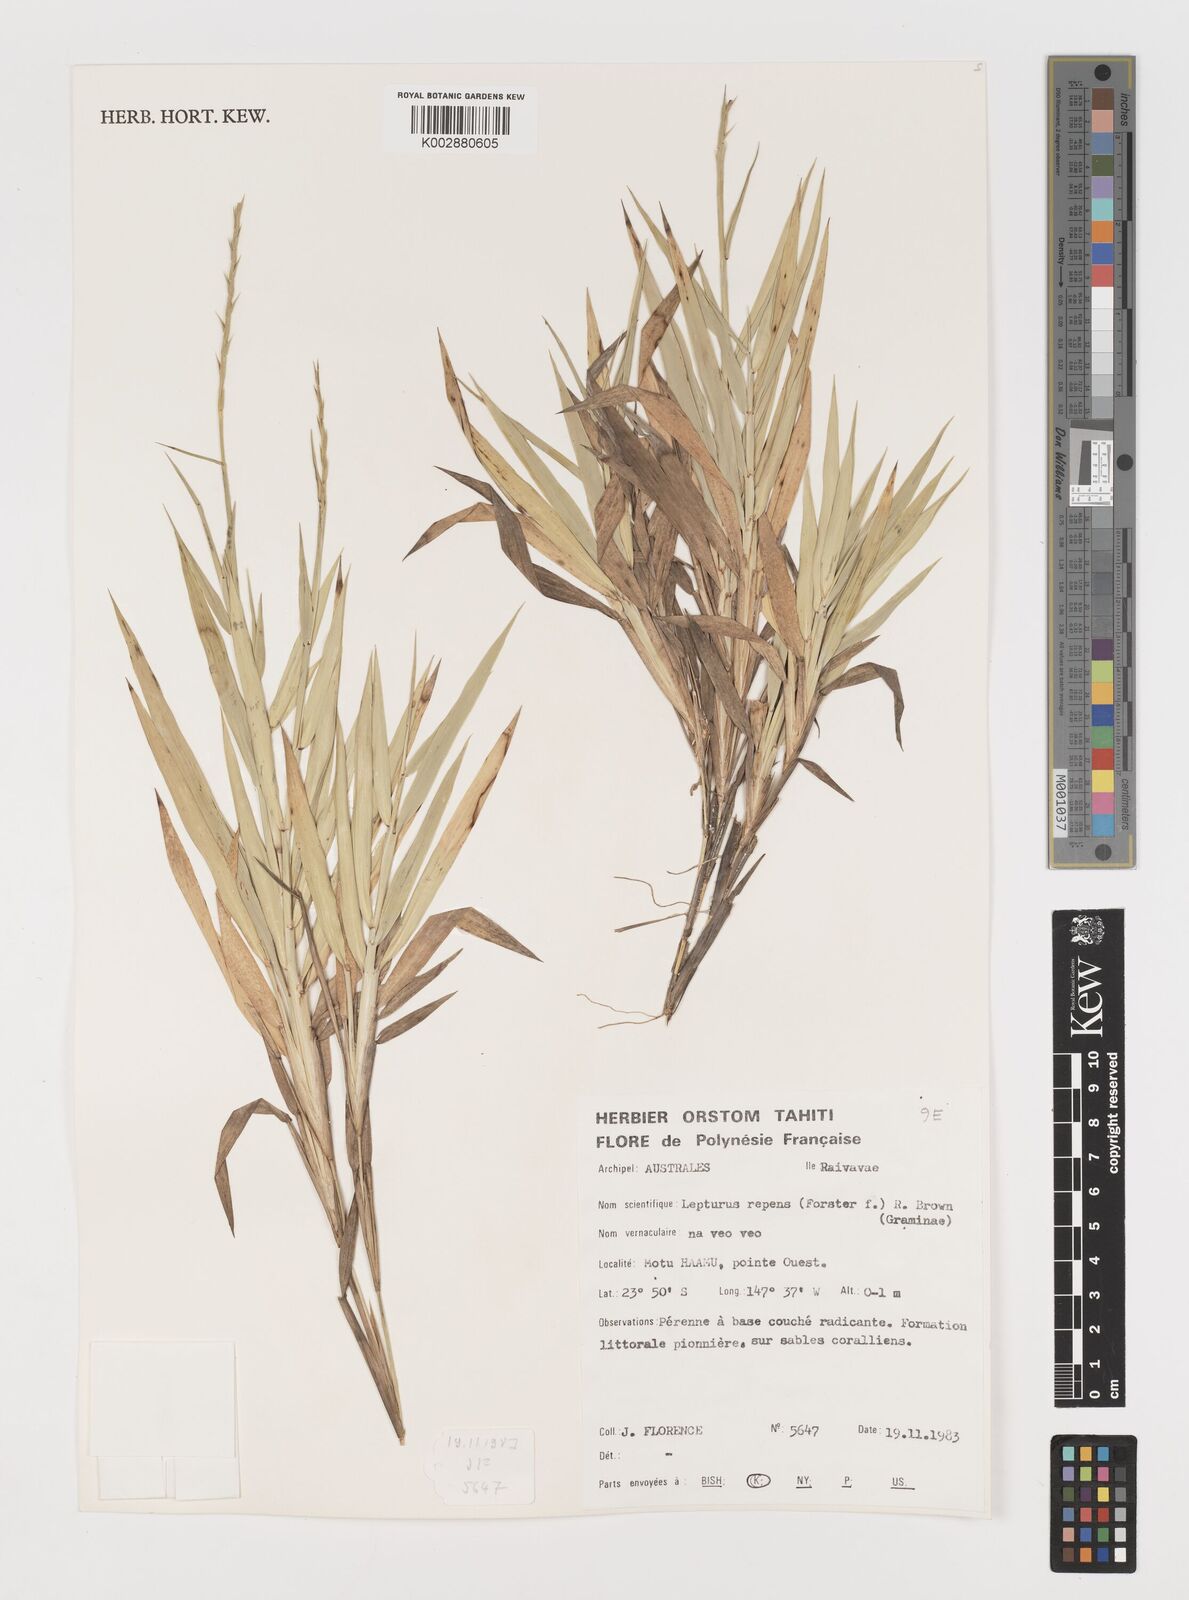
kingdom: Plantae
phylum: Tracheophyta
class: Liliopsida
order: Poales
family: Poaceae
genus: Lepturus
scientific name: Lepturus repens
